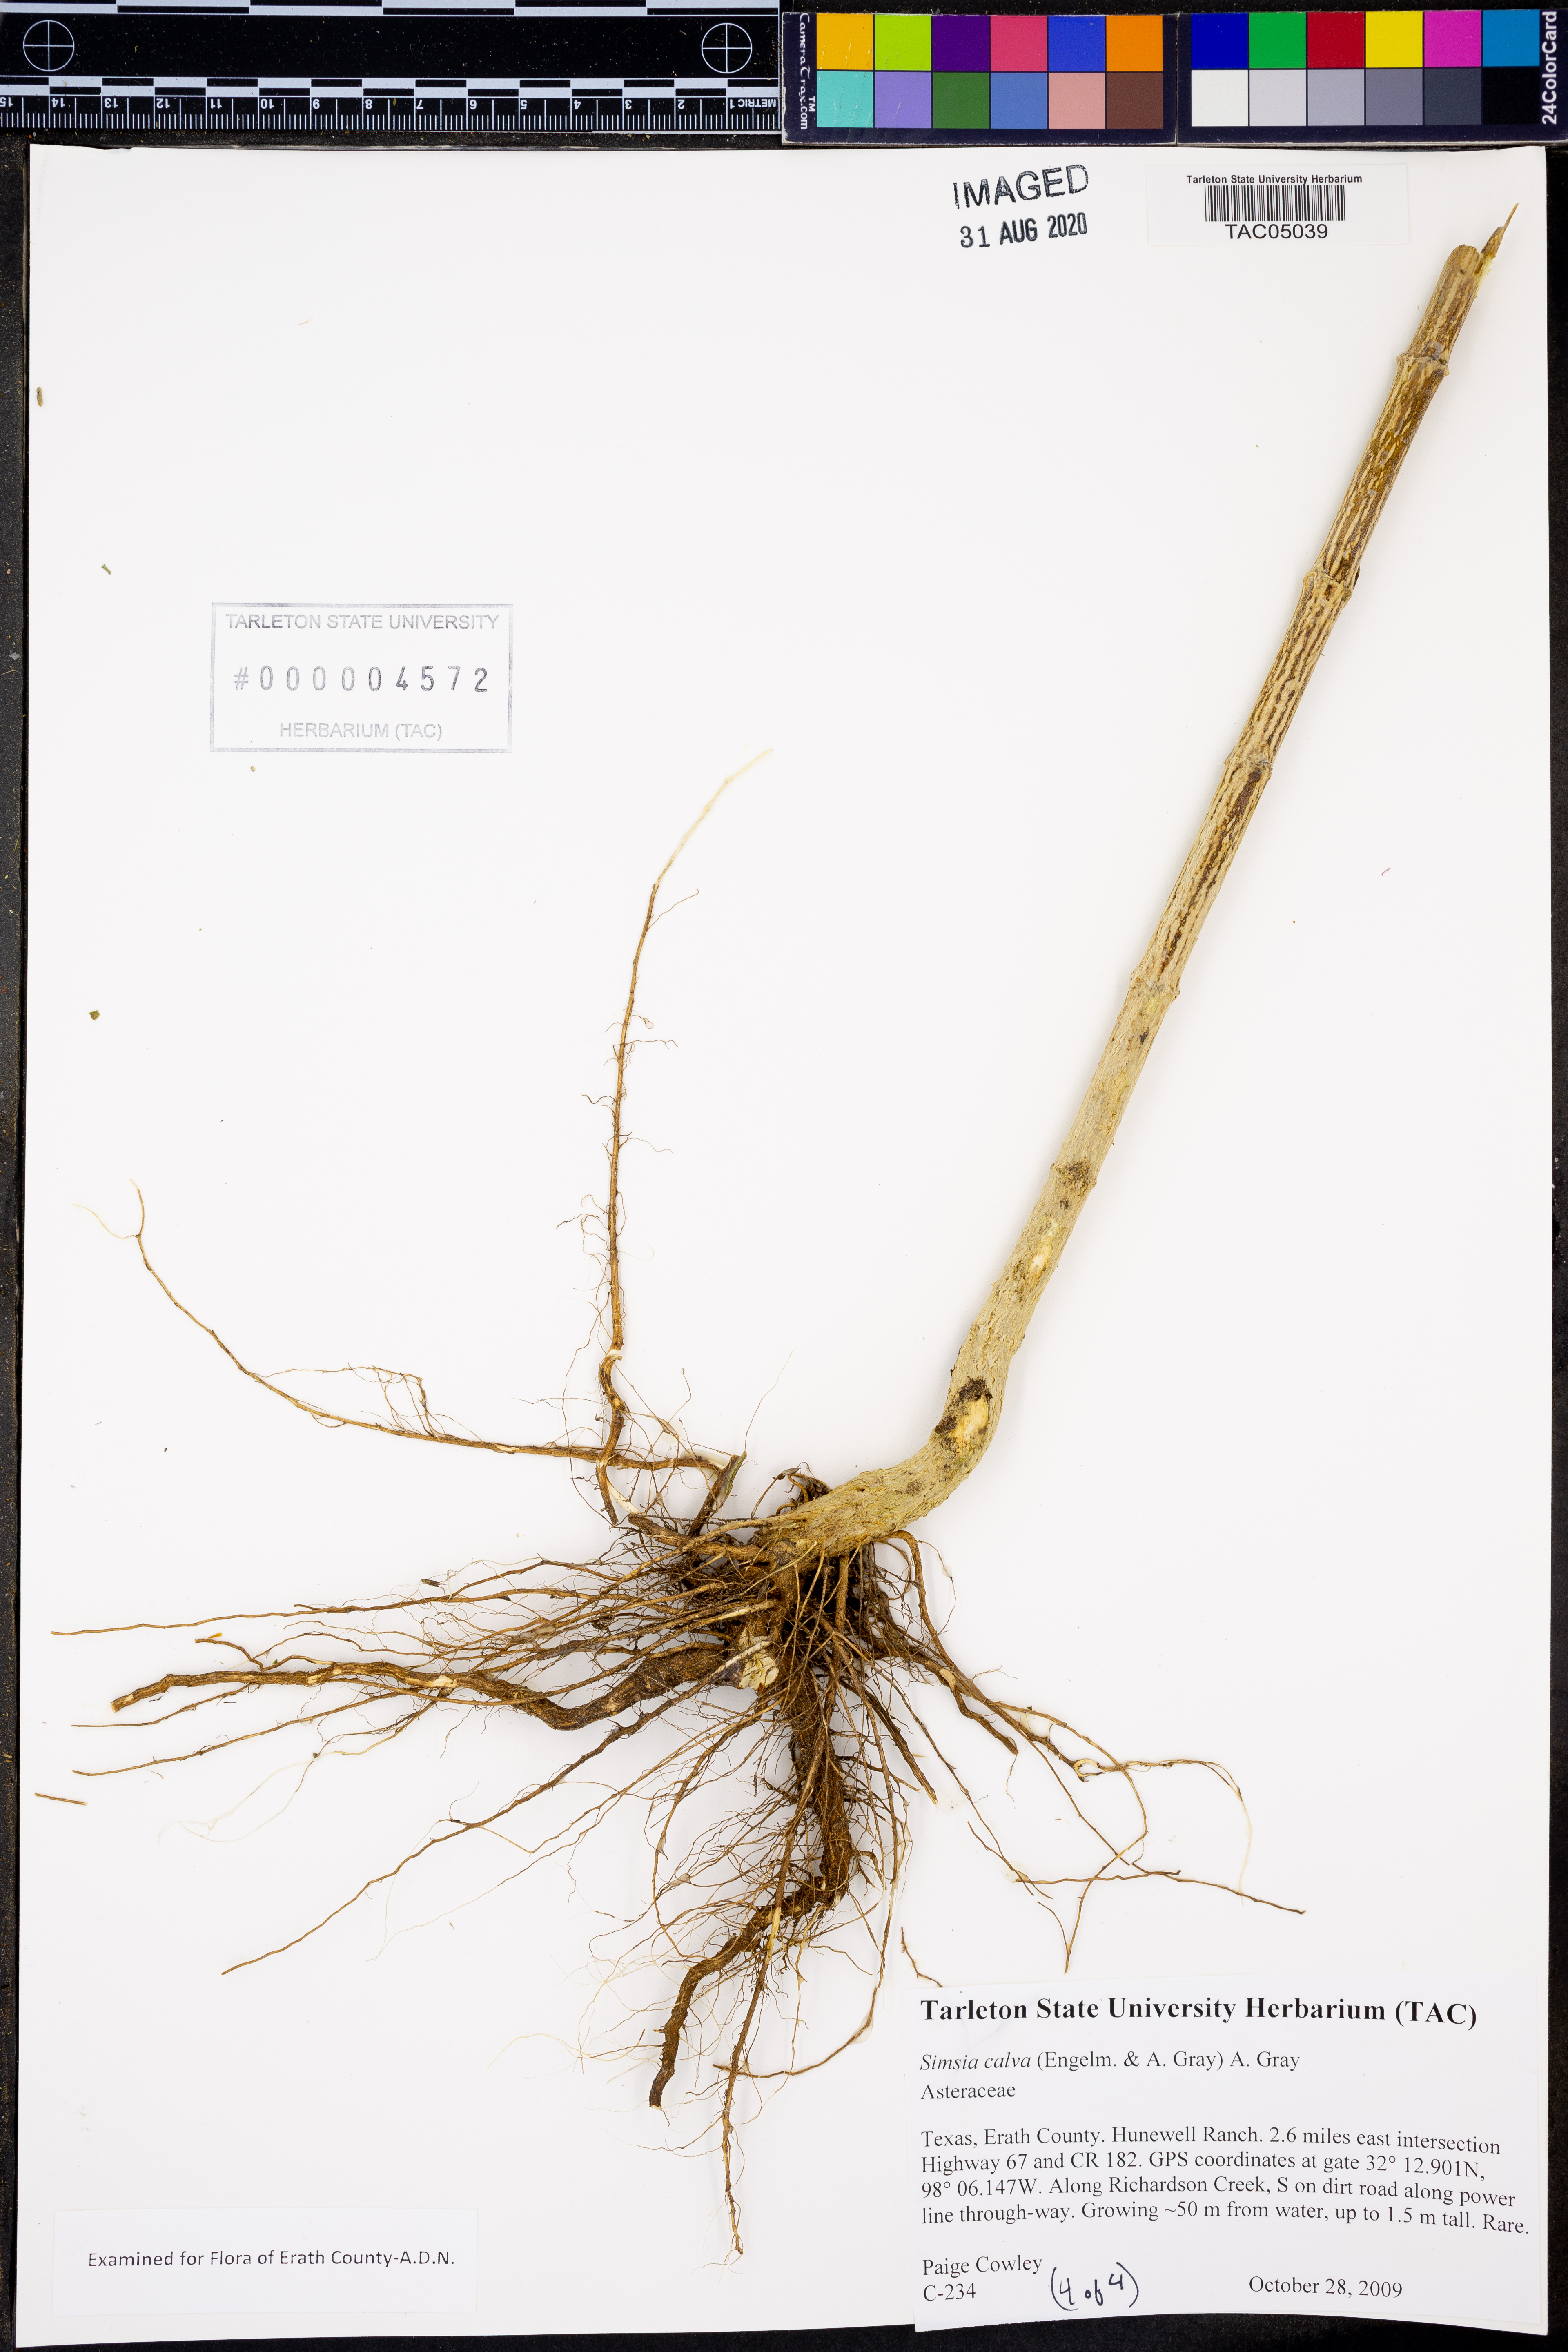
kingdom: Plantae
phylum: Tracheophyta
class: Magnoliopsida
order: Asterales
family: Asteraceae
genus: Simsia
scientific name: Simsia calva
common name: Awnless bush-sunflower
